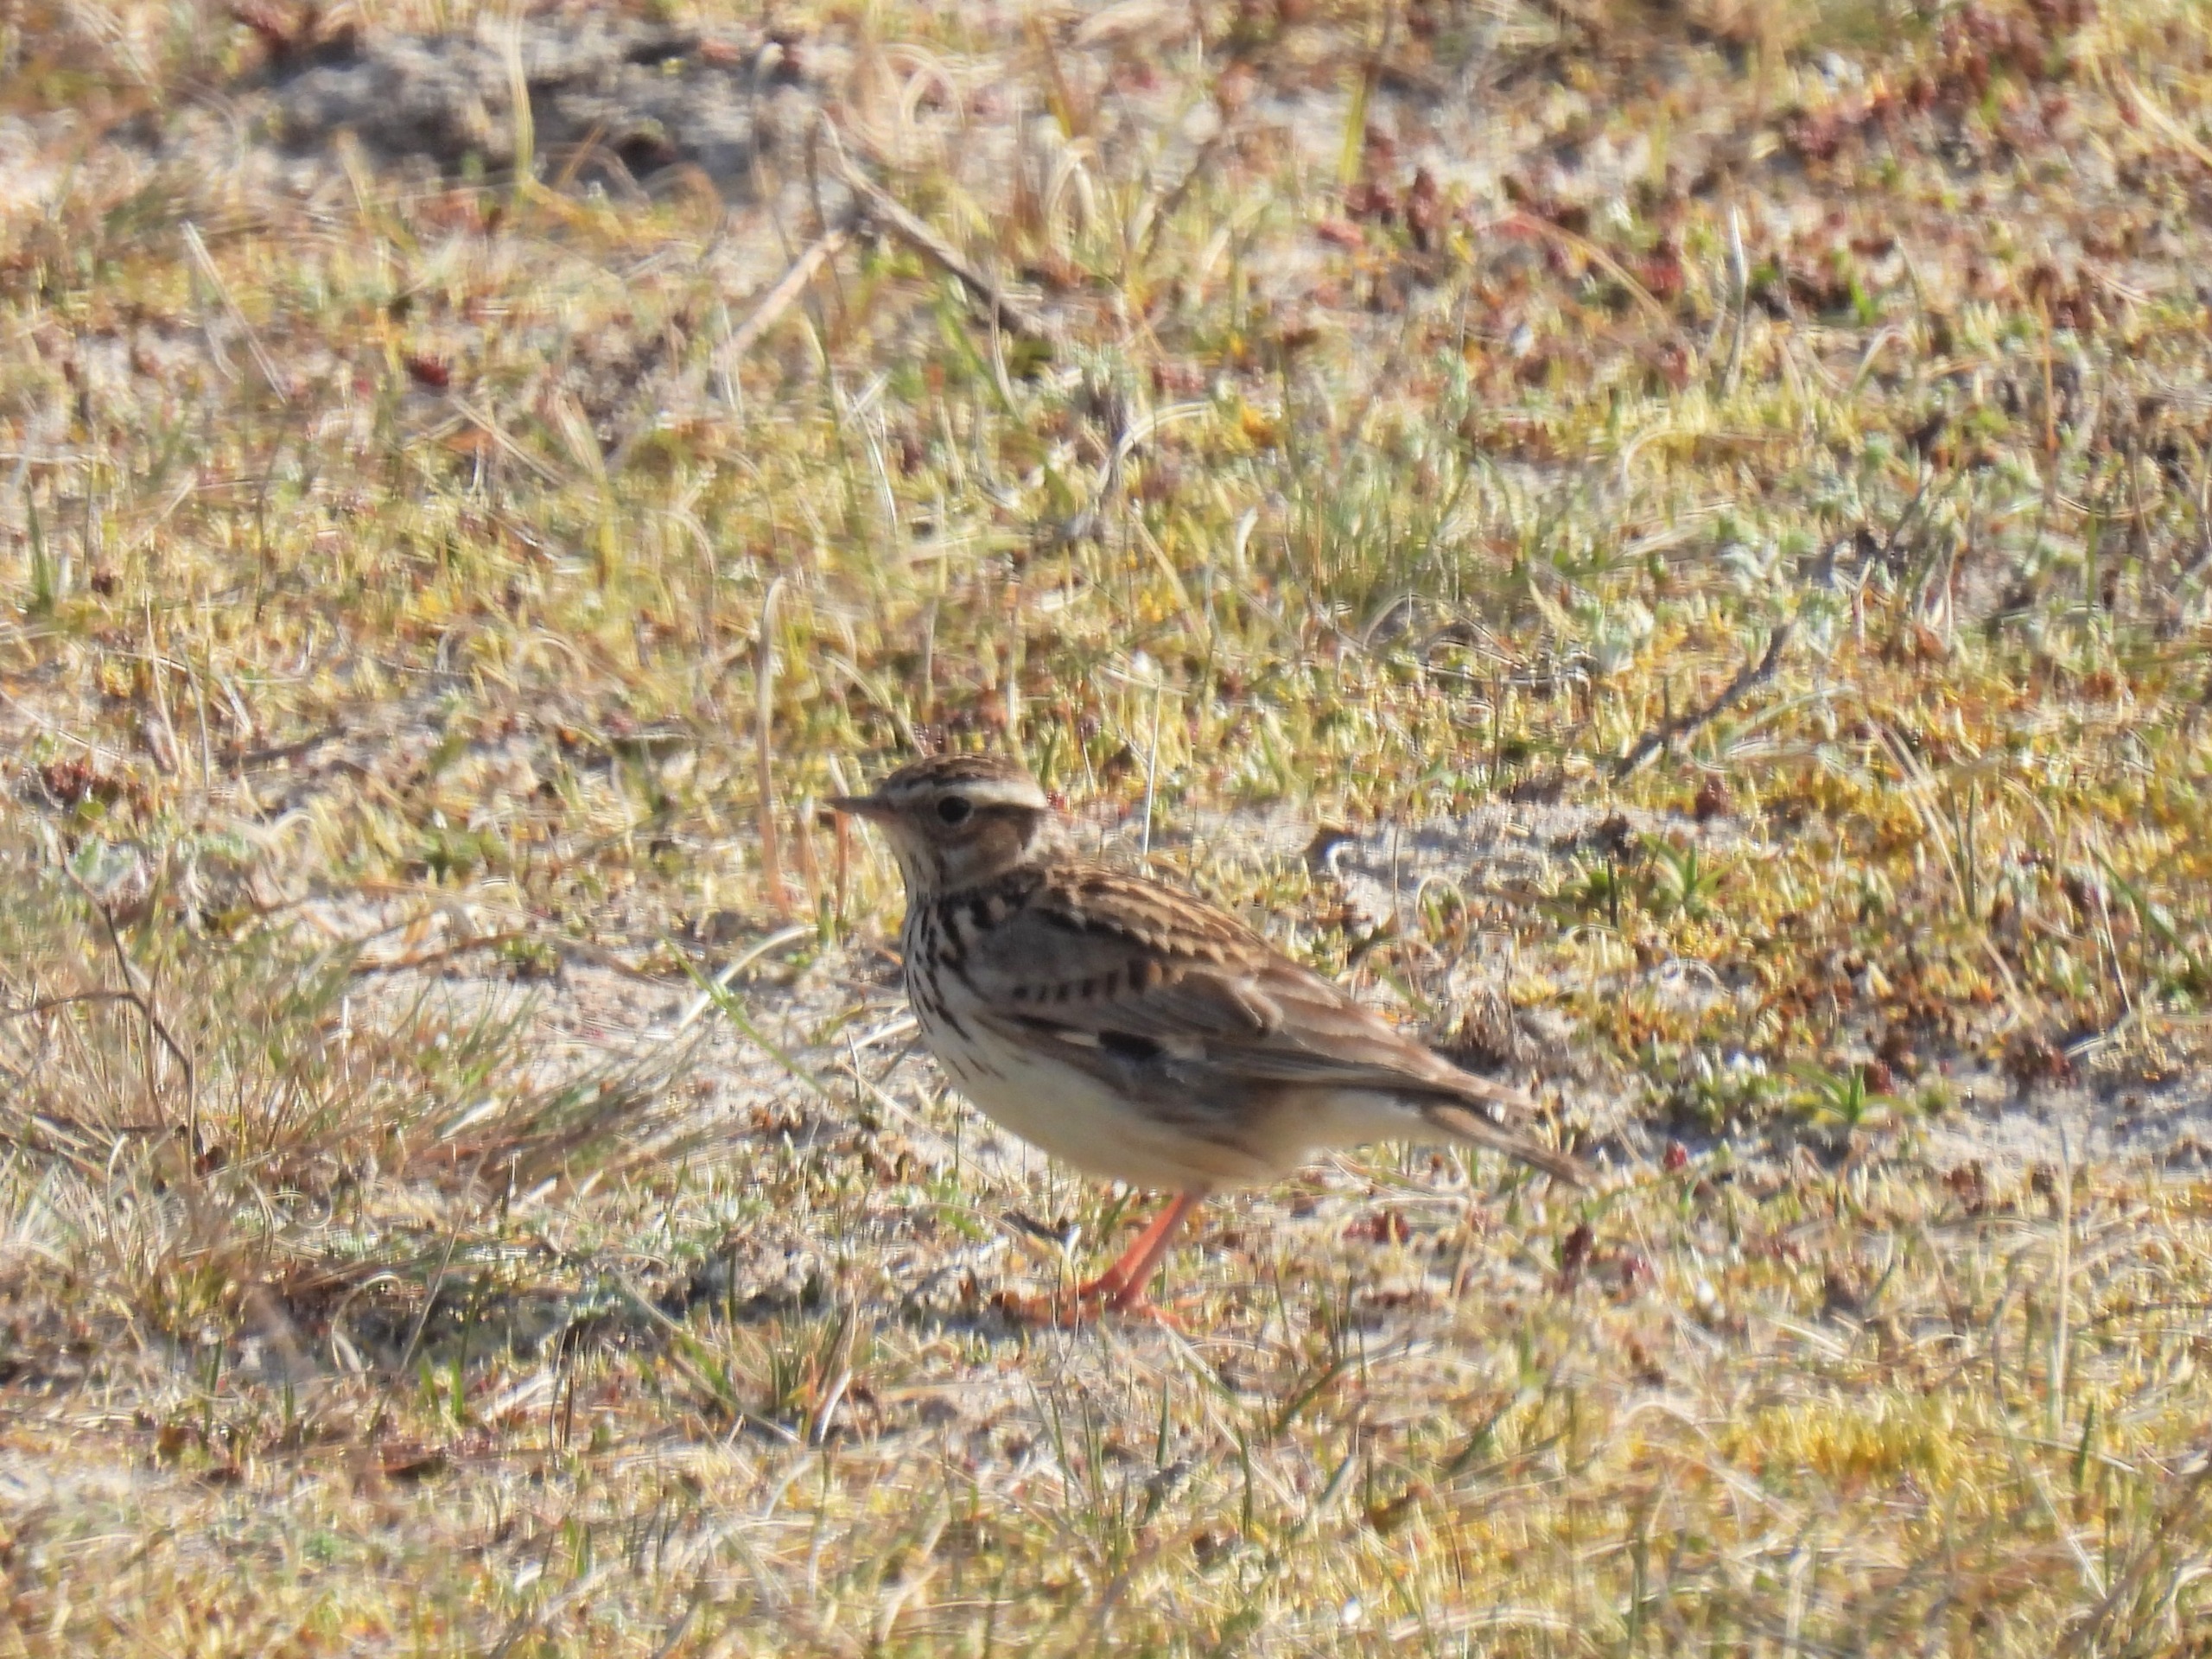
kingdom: Animalia
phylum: Chordata
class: Aves
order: Passeriformes
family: Alaudidae
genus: Lullula
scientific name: Lullula arborea
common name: Hedelærke
